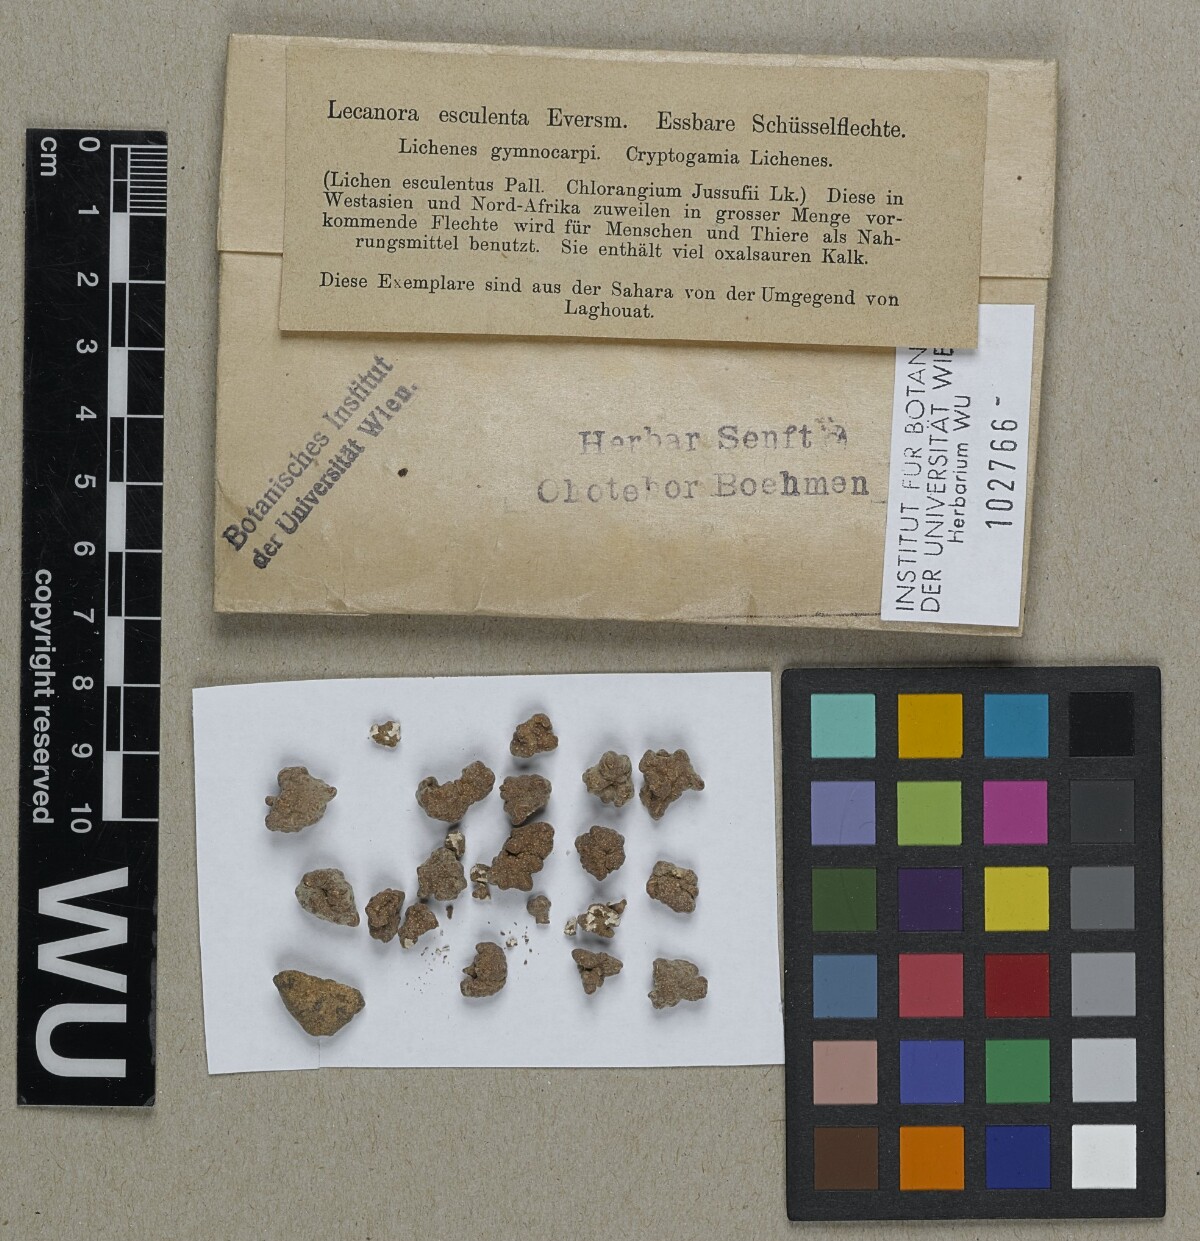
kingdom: Fungi
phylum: Ascomycota
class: Lecanoromycetes
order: Pertusariales
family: Megasporaceae
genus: Circinaria
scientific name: Circinaria esculenta
